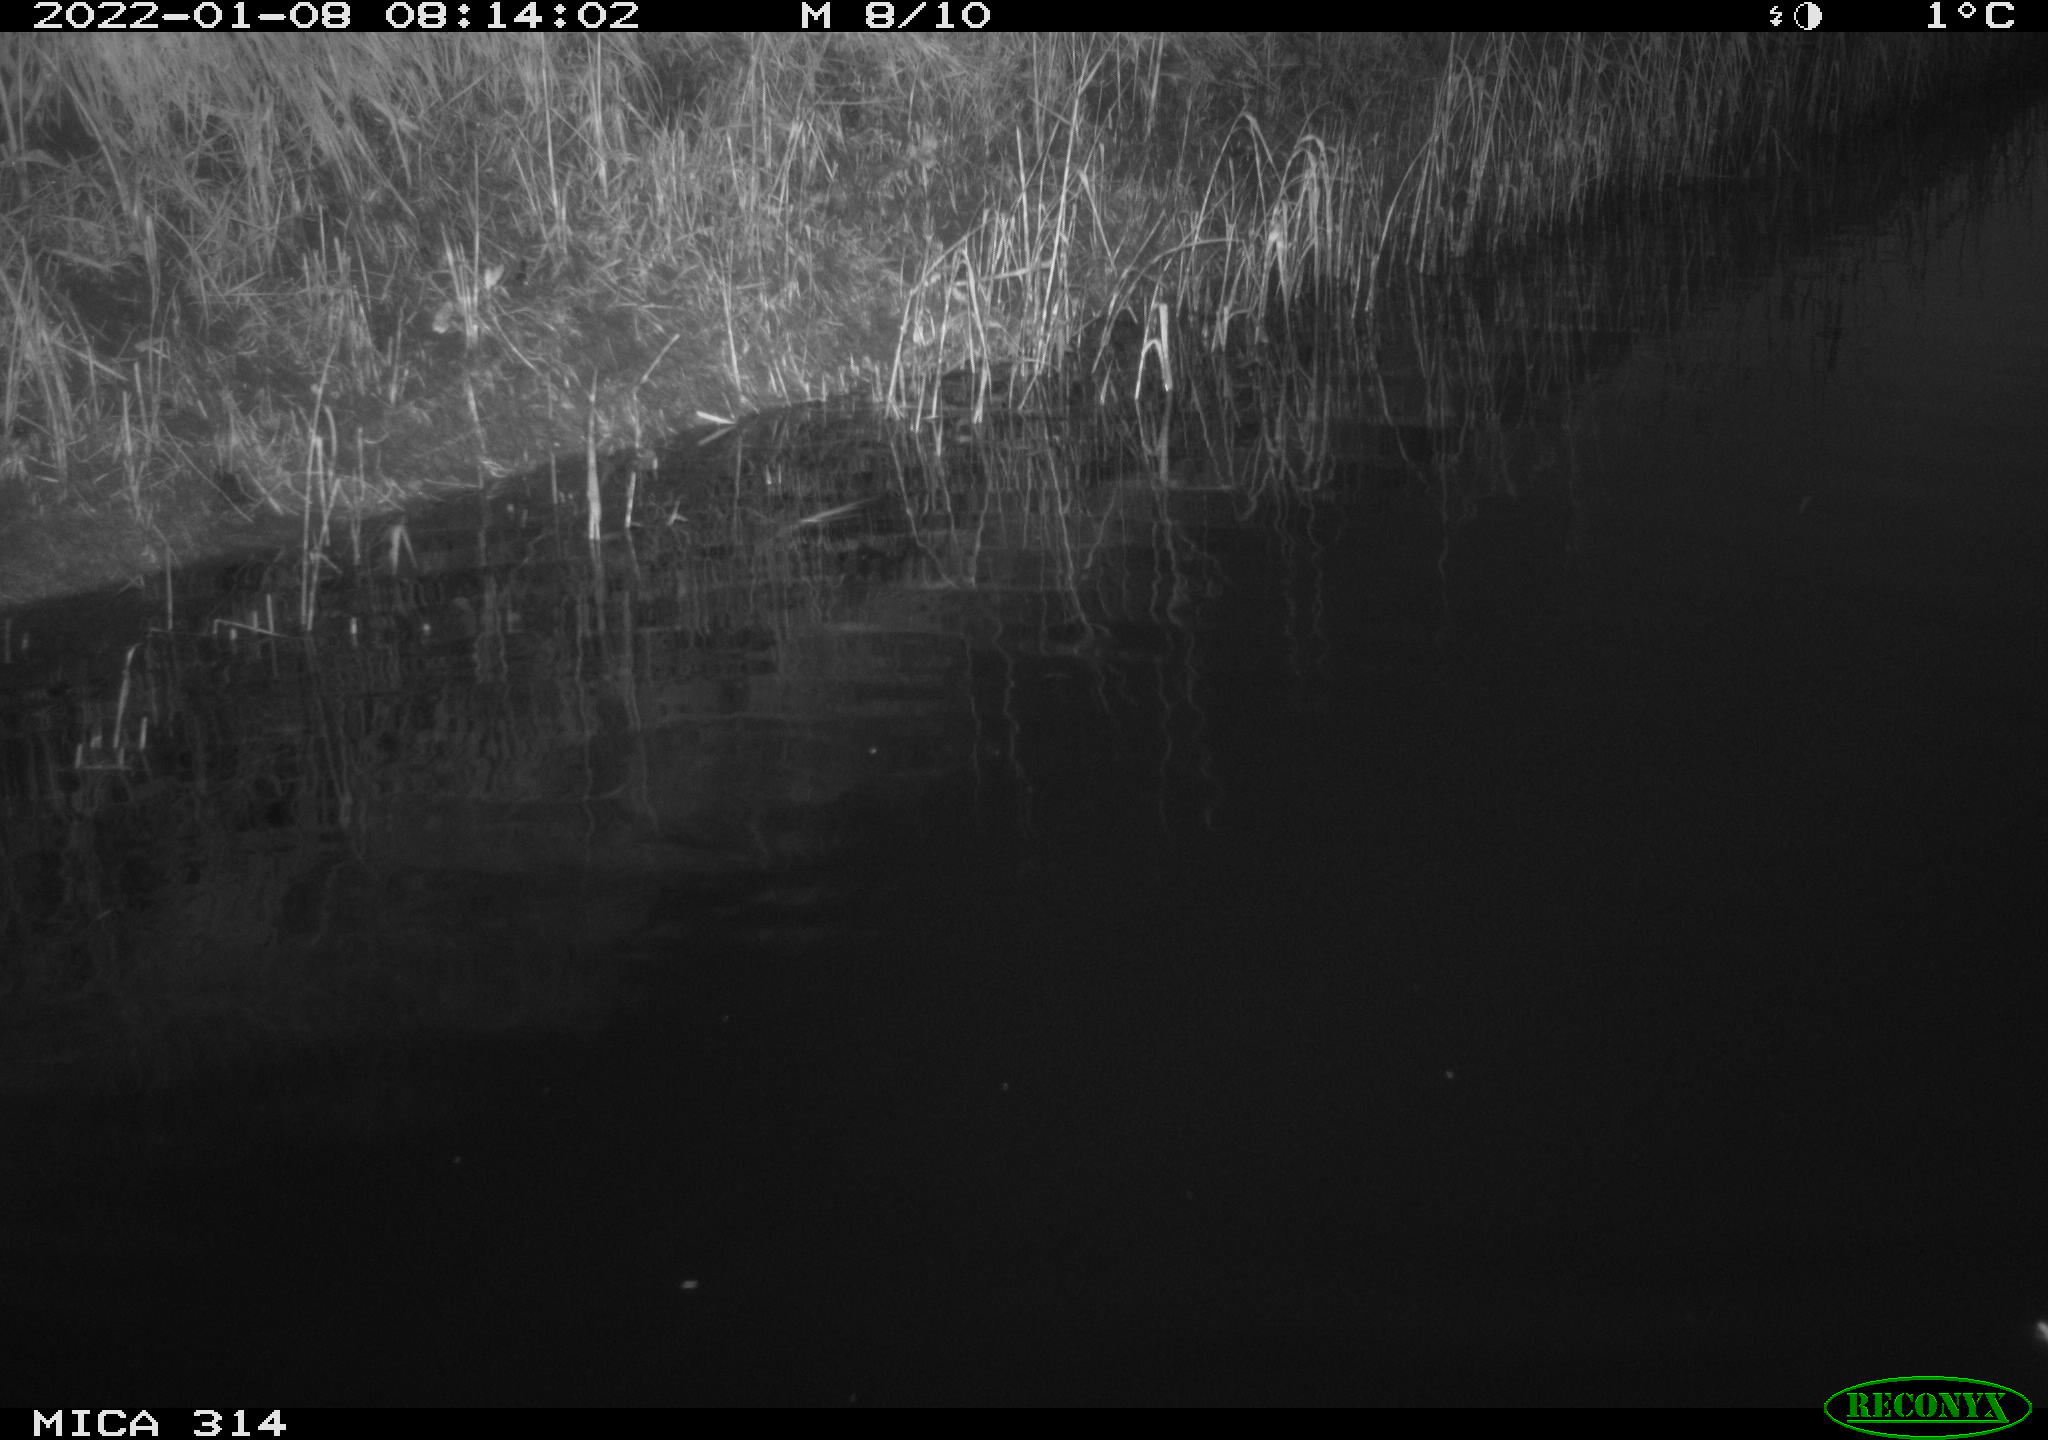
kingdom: Animalia
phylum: Chordata
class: Aves
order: Gruiformes
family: Rallidae
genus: Gallinula
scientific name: Gallinula chloropus
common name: Common moorhen
